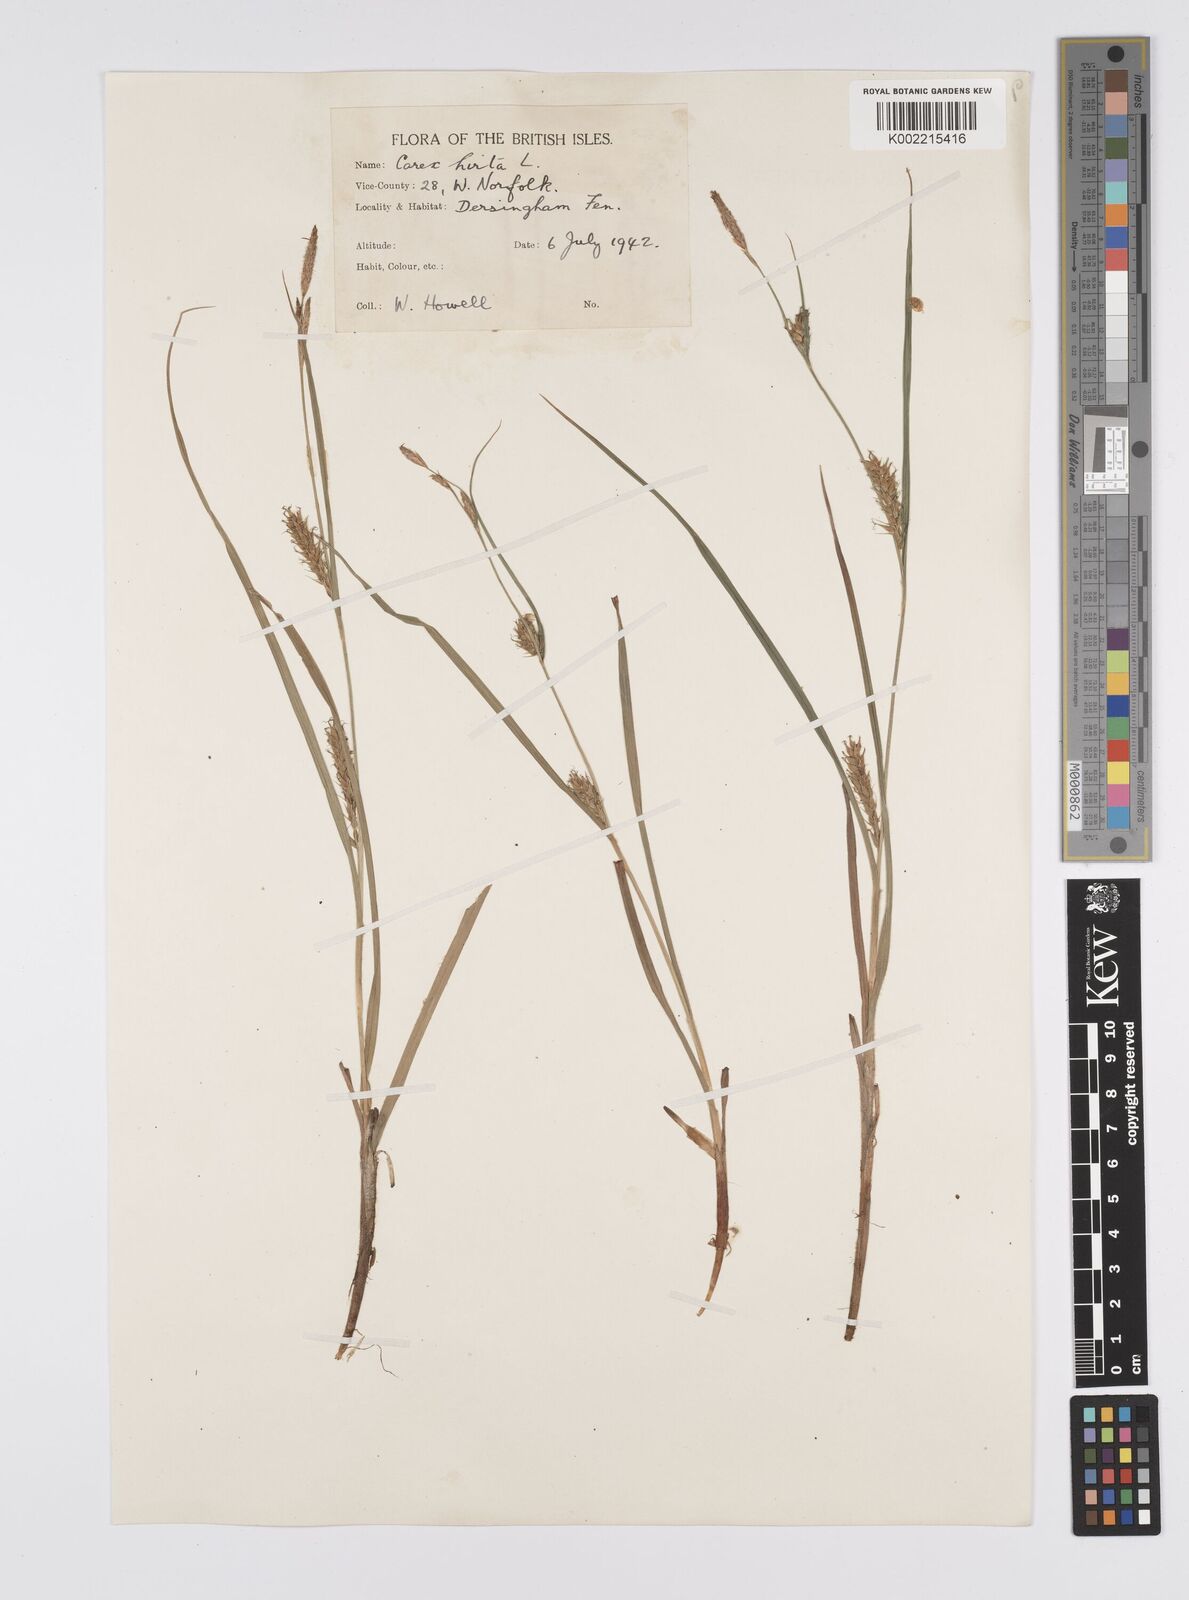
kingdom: Plantae
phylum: Tracheophyta
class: Liliopsida
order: Poales
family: Cyperaceae
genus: Carex
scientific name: Carex hirta
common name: Hairy sedge
